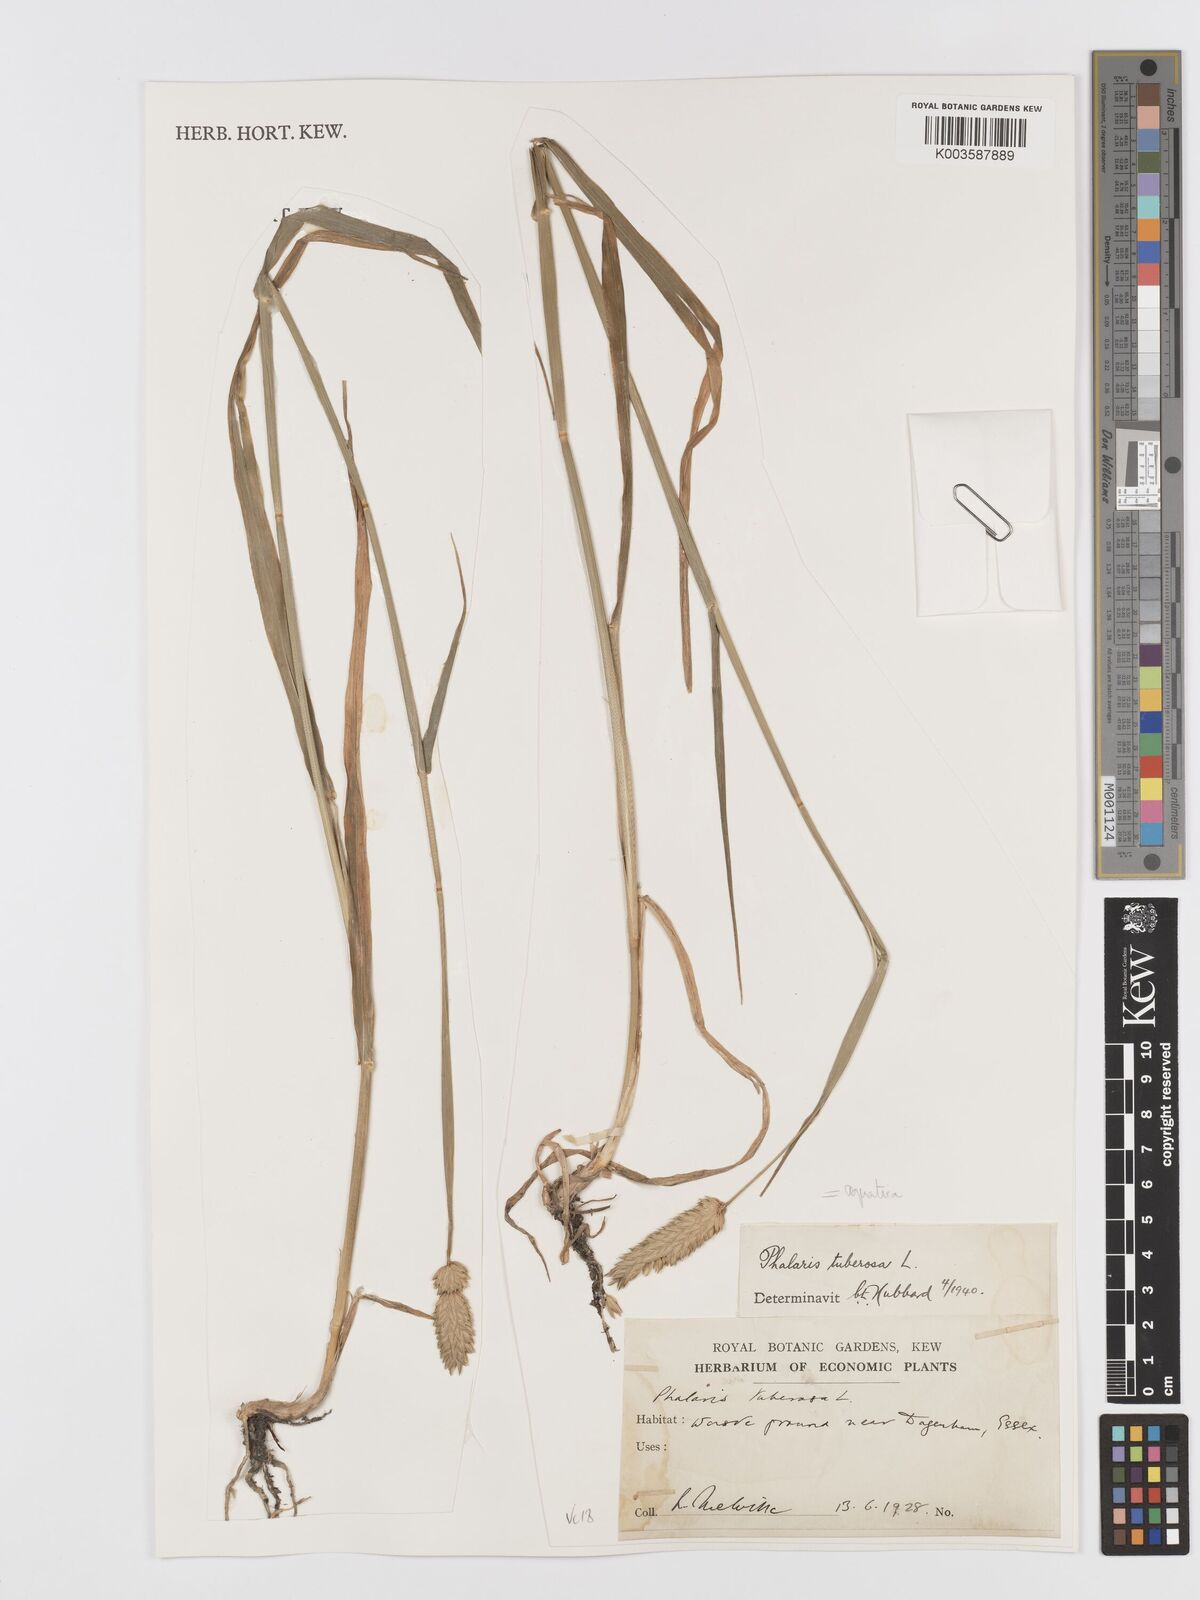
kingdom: Plantae
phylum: Tracheophyta
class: Liliopsida
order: Poales
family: Poaceae
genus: Phalaris
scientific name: Phalaris
